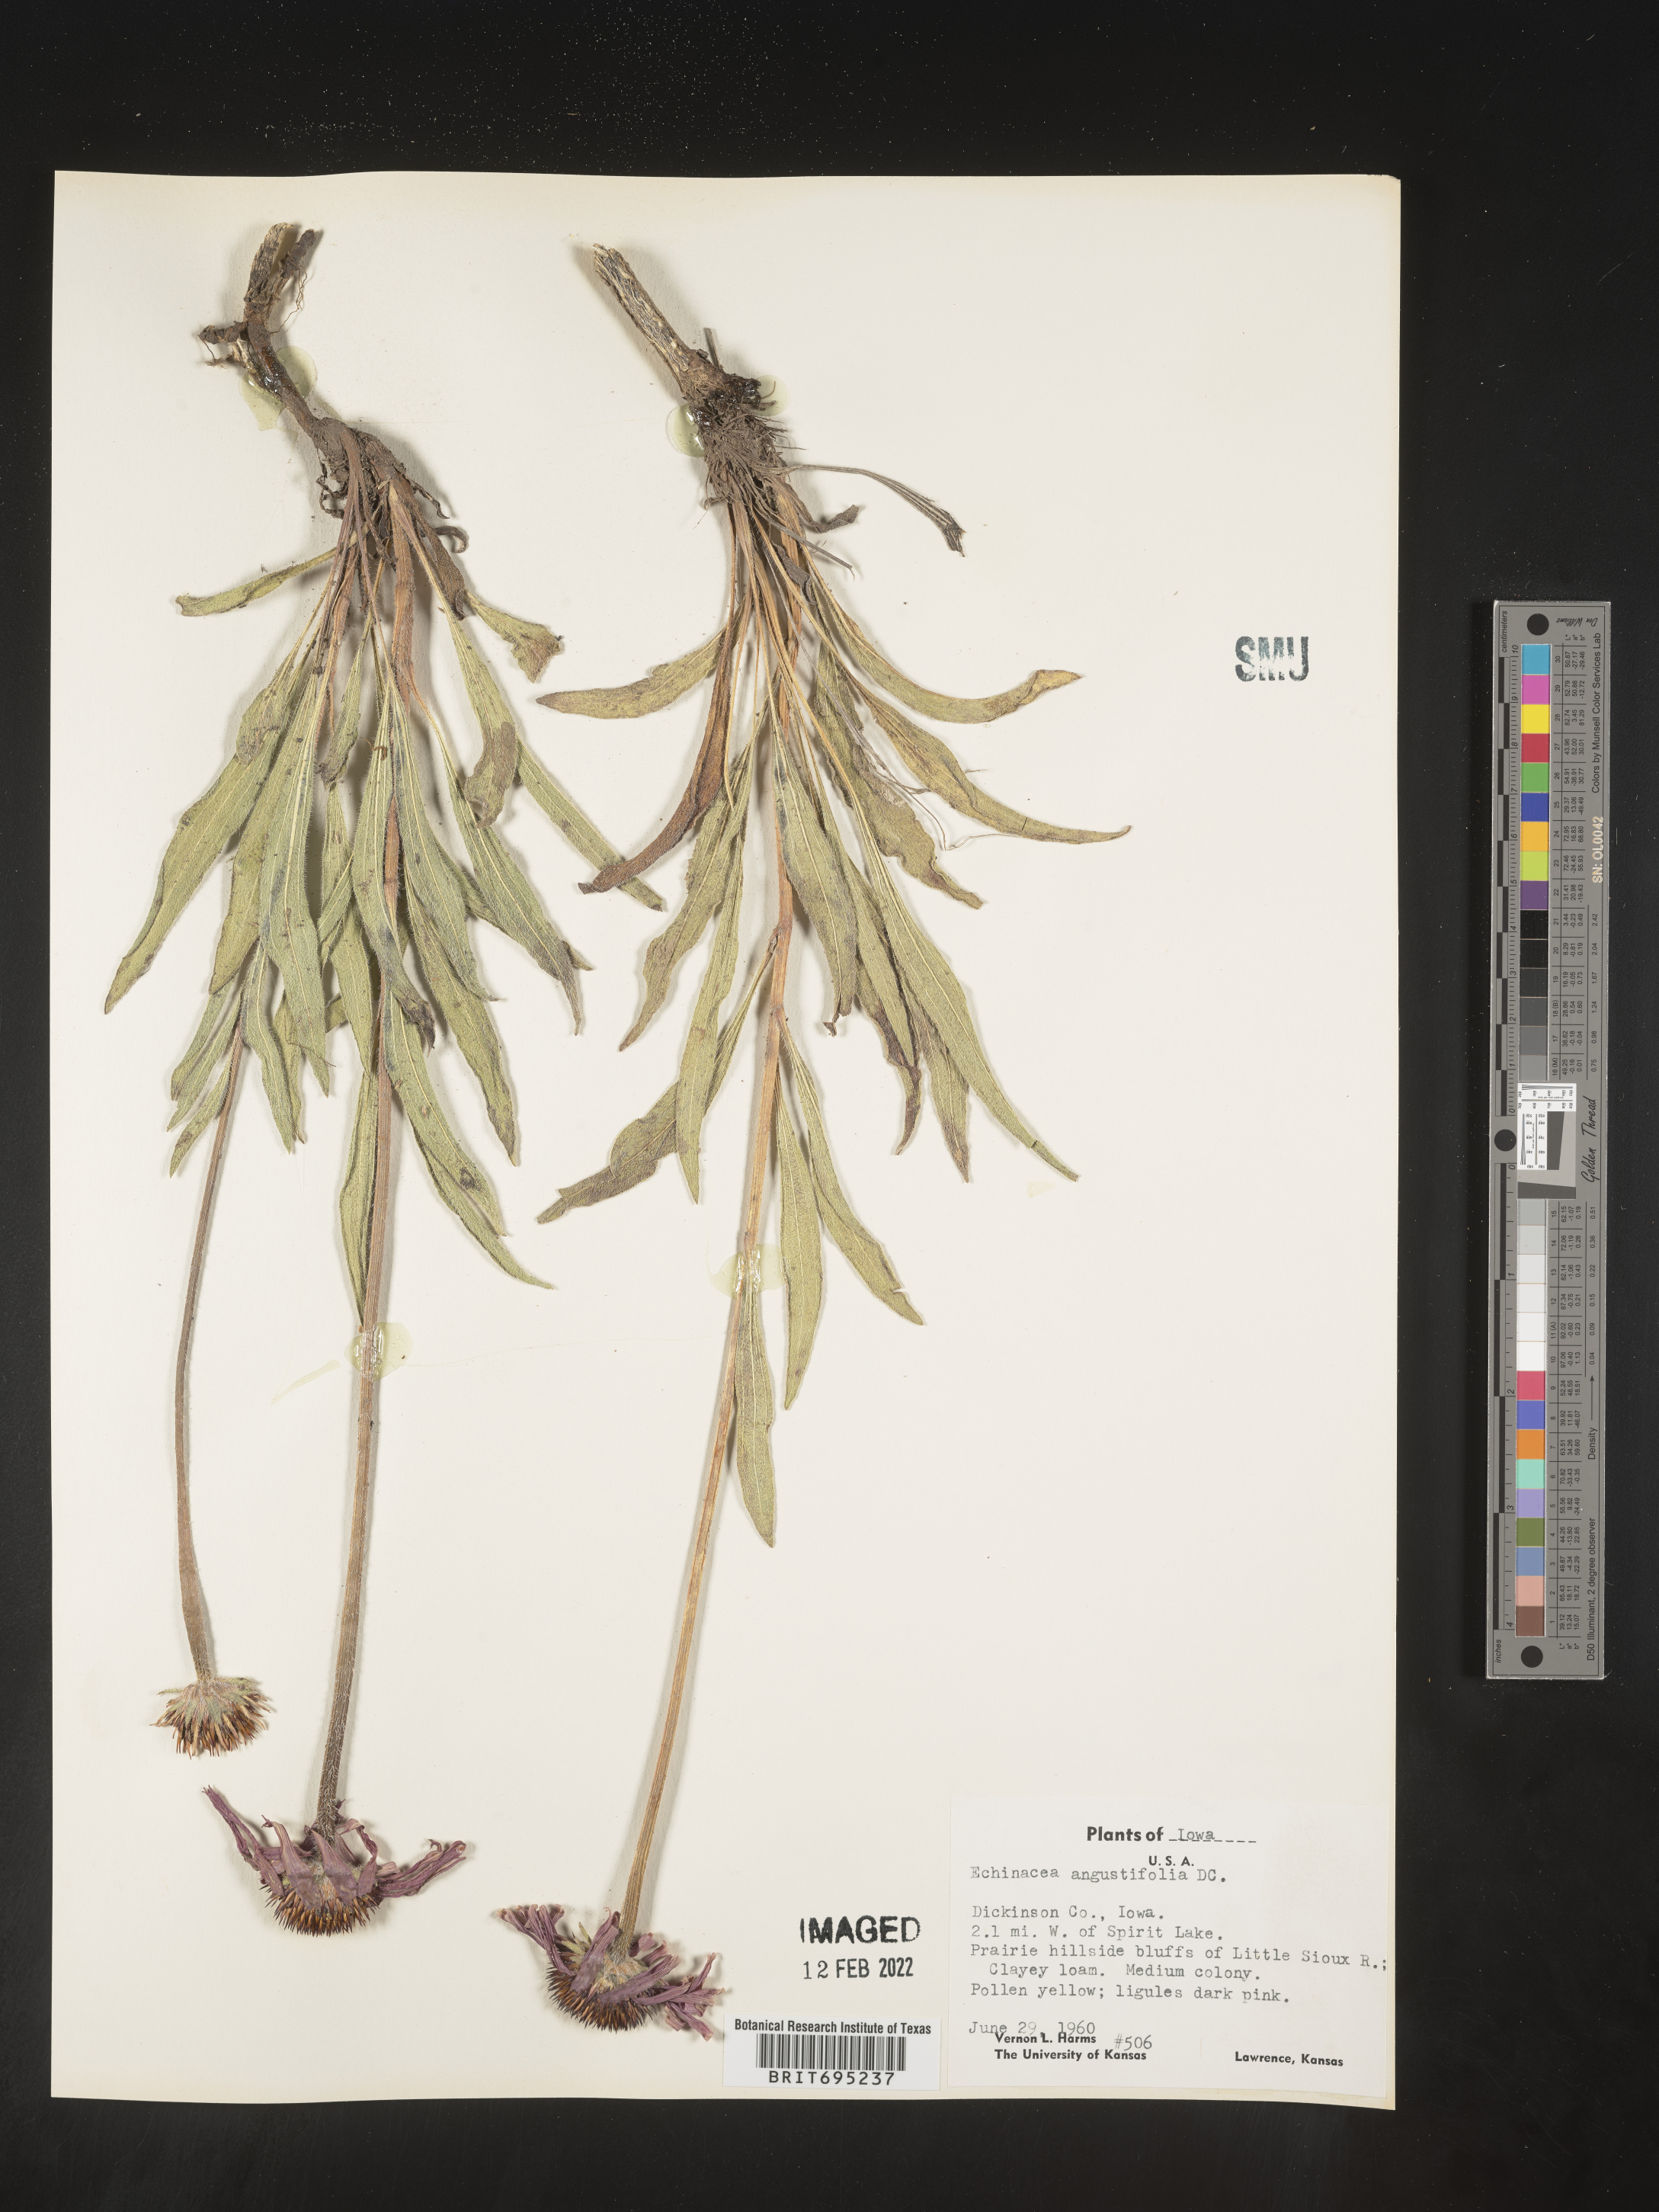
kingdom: Plantae
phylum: Tracheophyta
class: Magnoliopsida
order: Asterales
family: Asteraceae
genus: Echinacea
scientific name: Echinacea angustifolia
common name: Black-sampson echinacea
